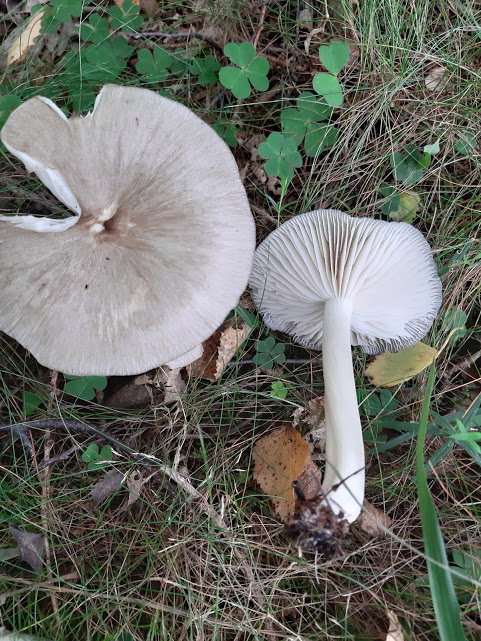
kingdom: Fungi
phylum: Basidiomycota
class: Agaricomycetes
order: Agaricales
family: Tricholomataceae
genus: Megacollybia
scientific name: Megacollybia platyphylla
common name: bredbladet væbnerhat
